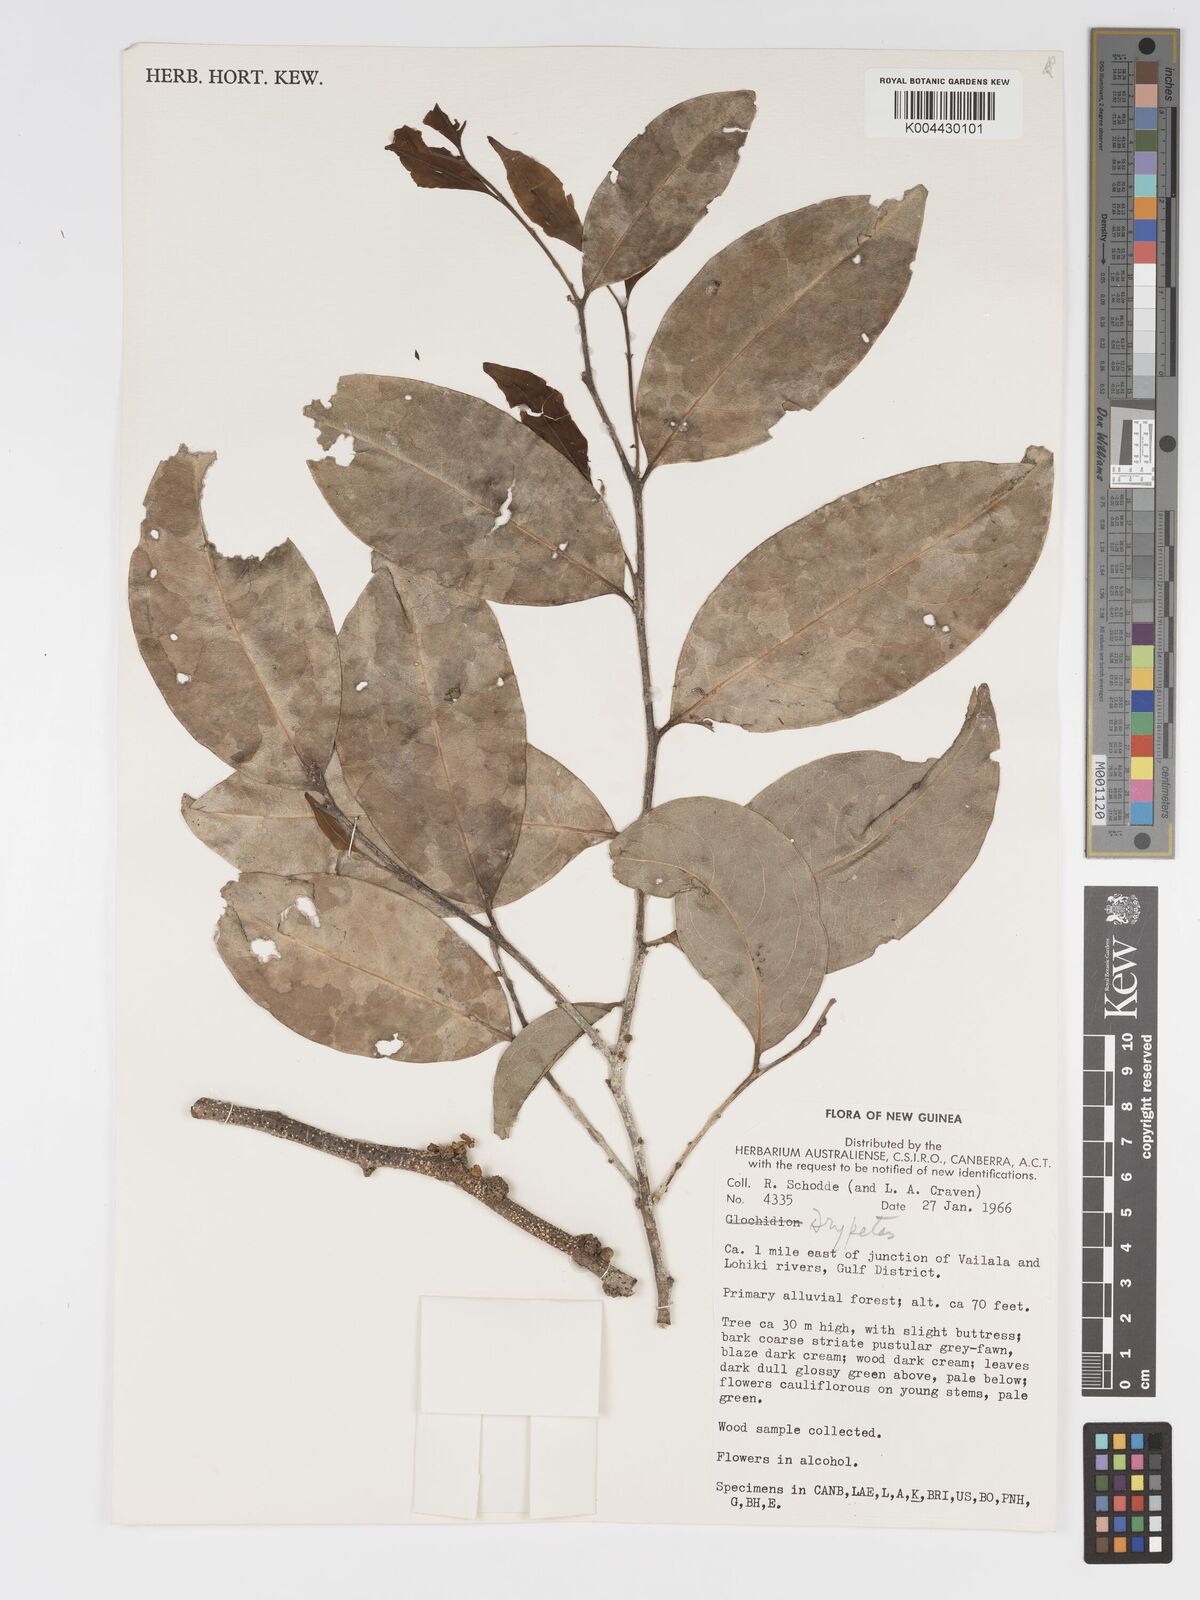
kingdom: Plantae
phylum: Tracheophyta
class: Magnoliopsida
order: Malpighiales
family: Putranjivaceae
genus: Drypetes
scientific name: Drypetes lasiogynoides
